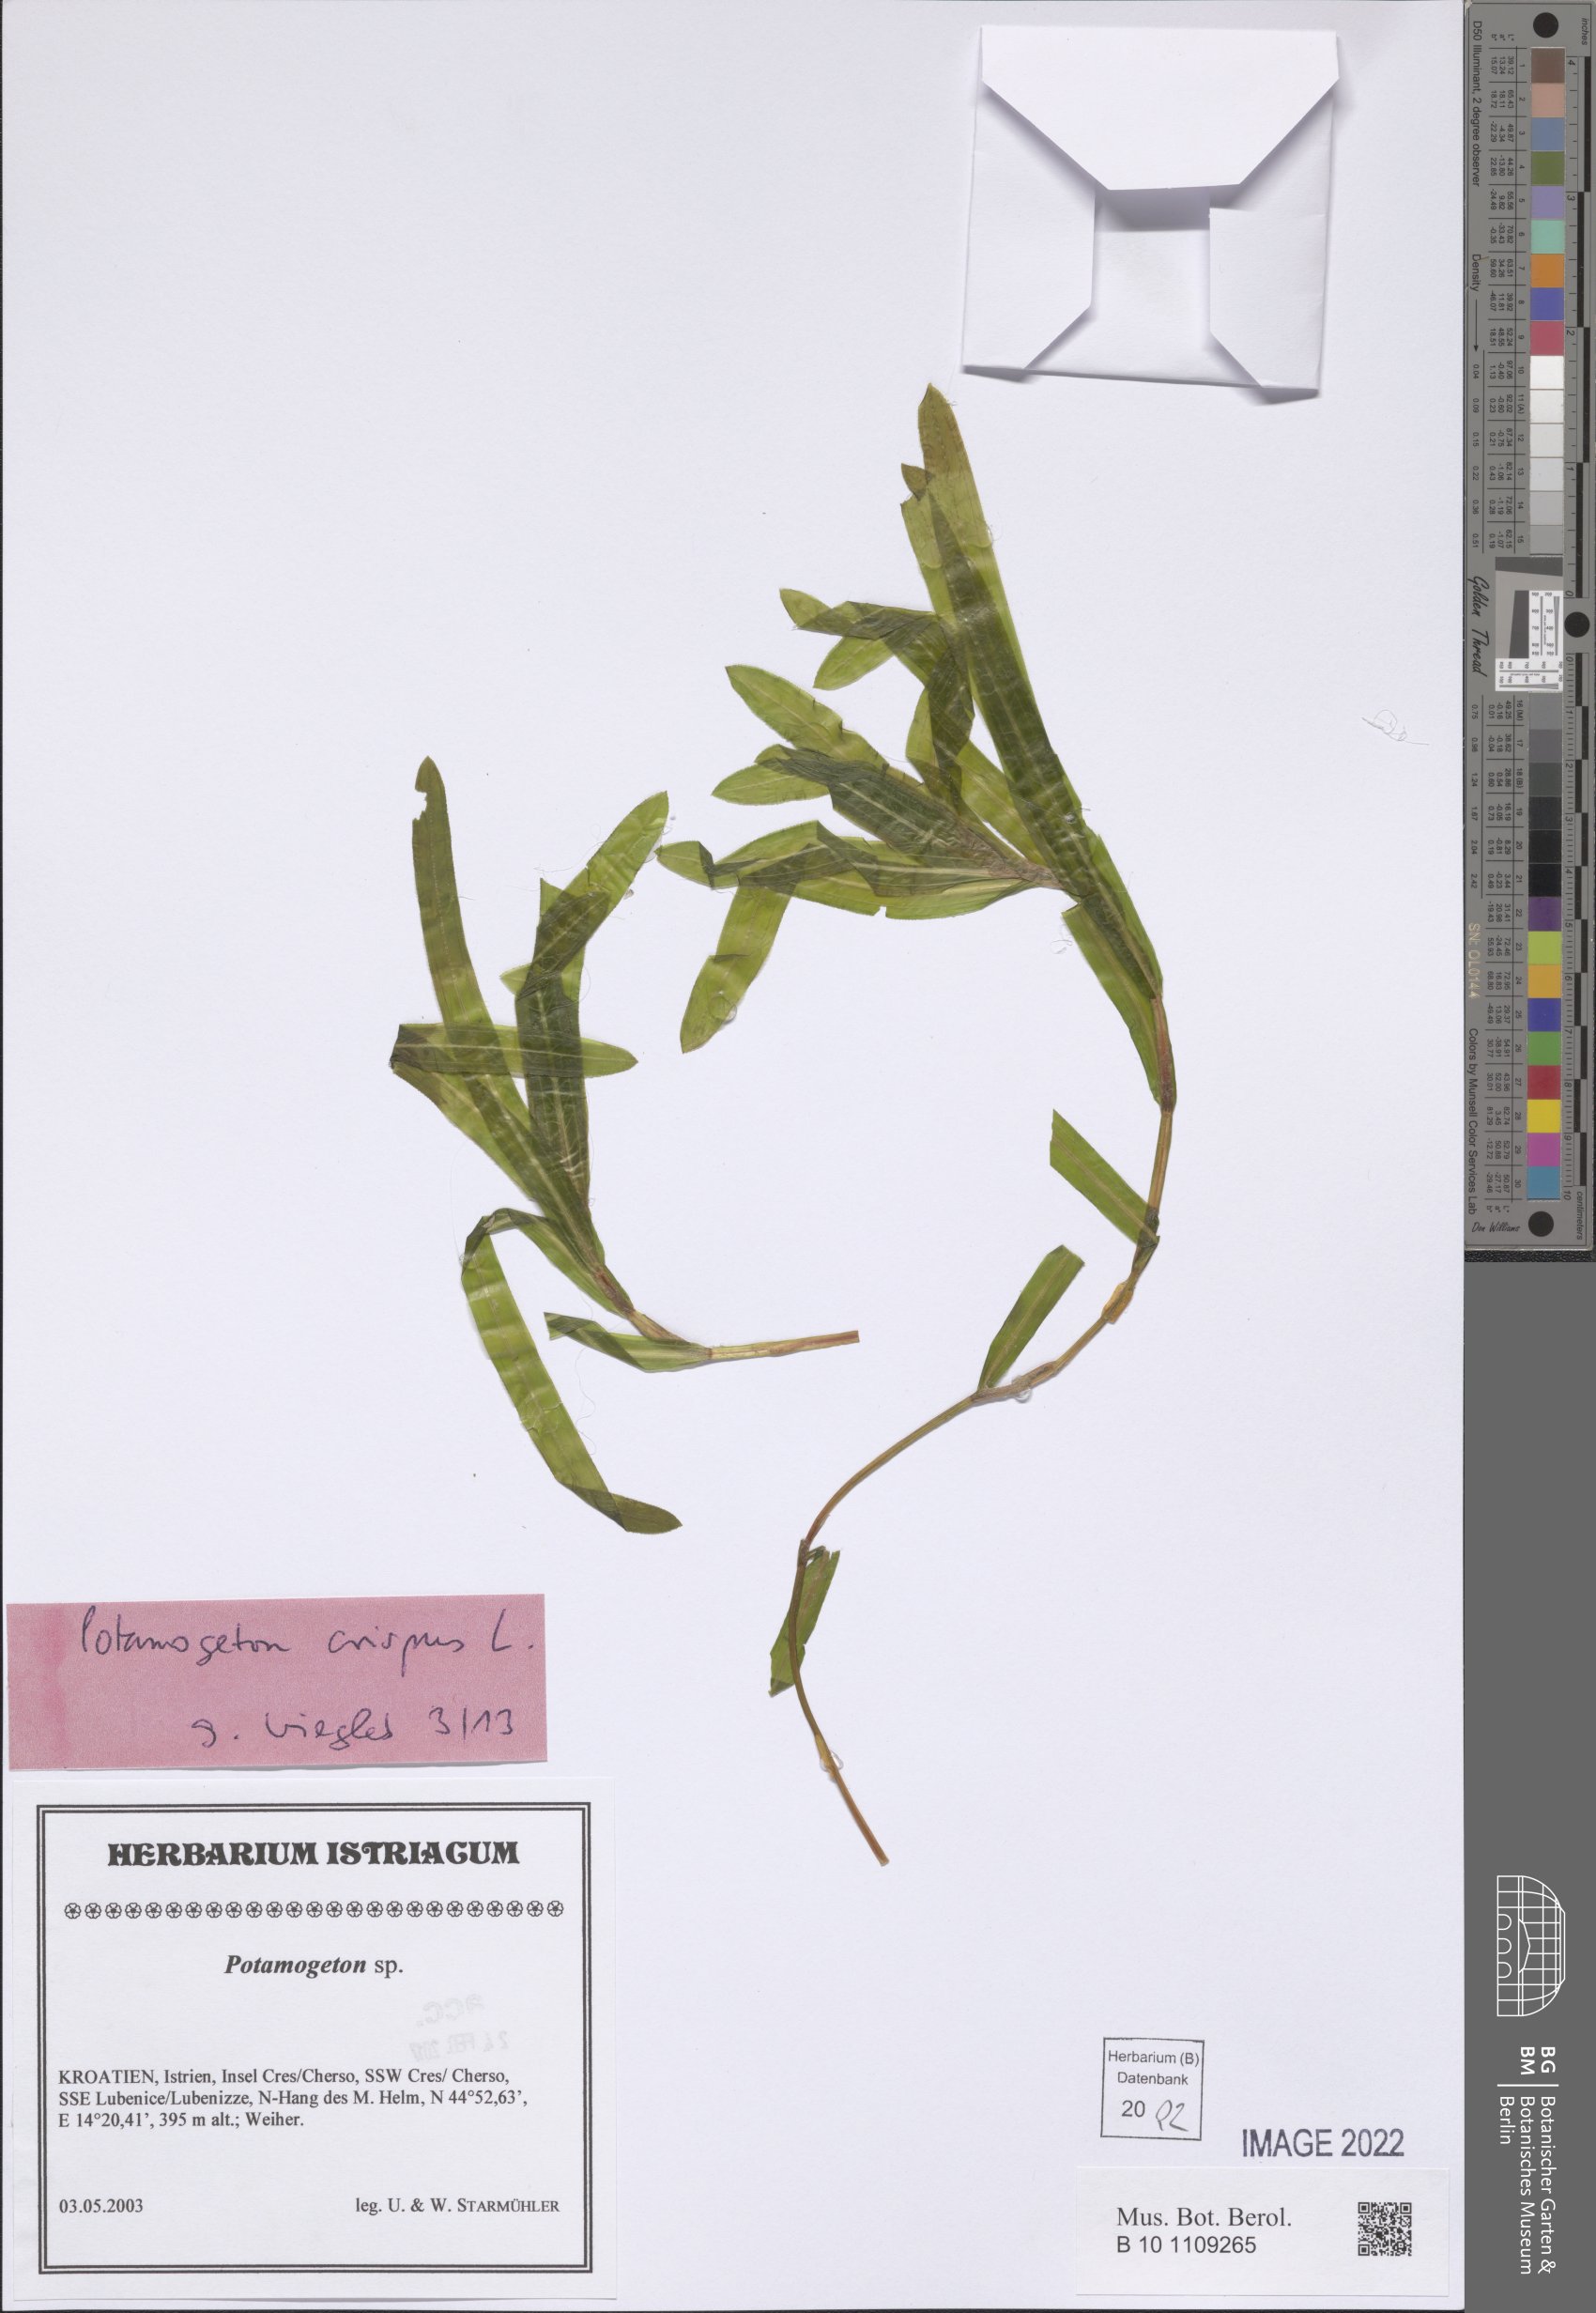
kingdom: Plantae
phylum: Tracheophyta
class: Liliopsida
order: Alismatales
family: Potamogetonaceae
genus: Potamogeton
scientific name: Potamogeton crispus
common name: Curled pondweed
